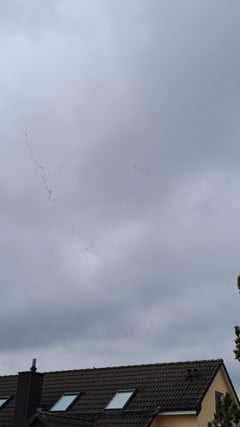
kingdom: Animalia
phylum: Chordata
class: Aves
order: Gruiformes
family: Gruidae
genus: Grus
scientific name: Grus grus
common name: Common crane
